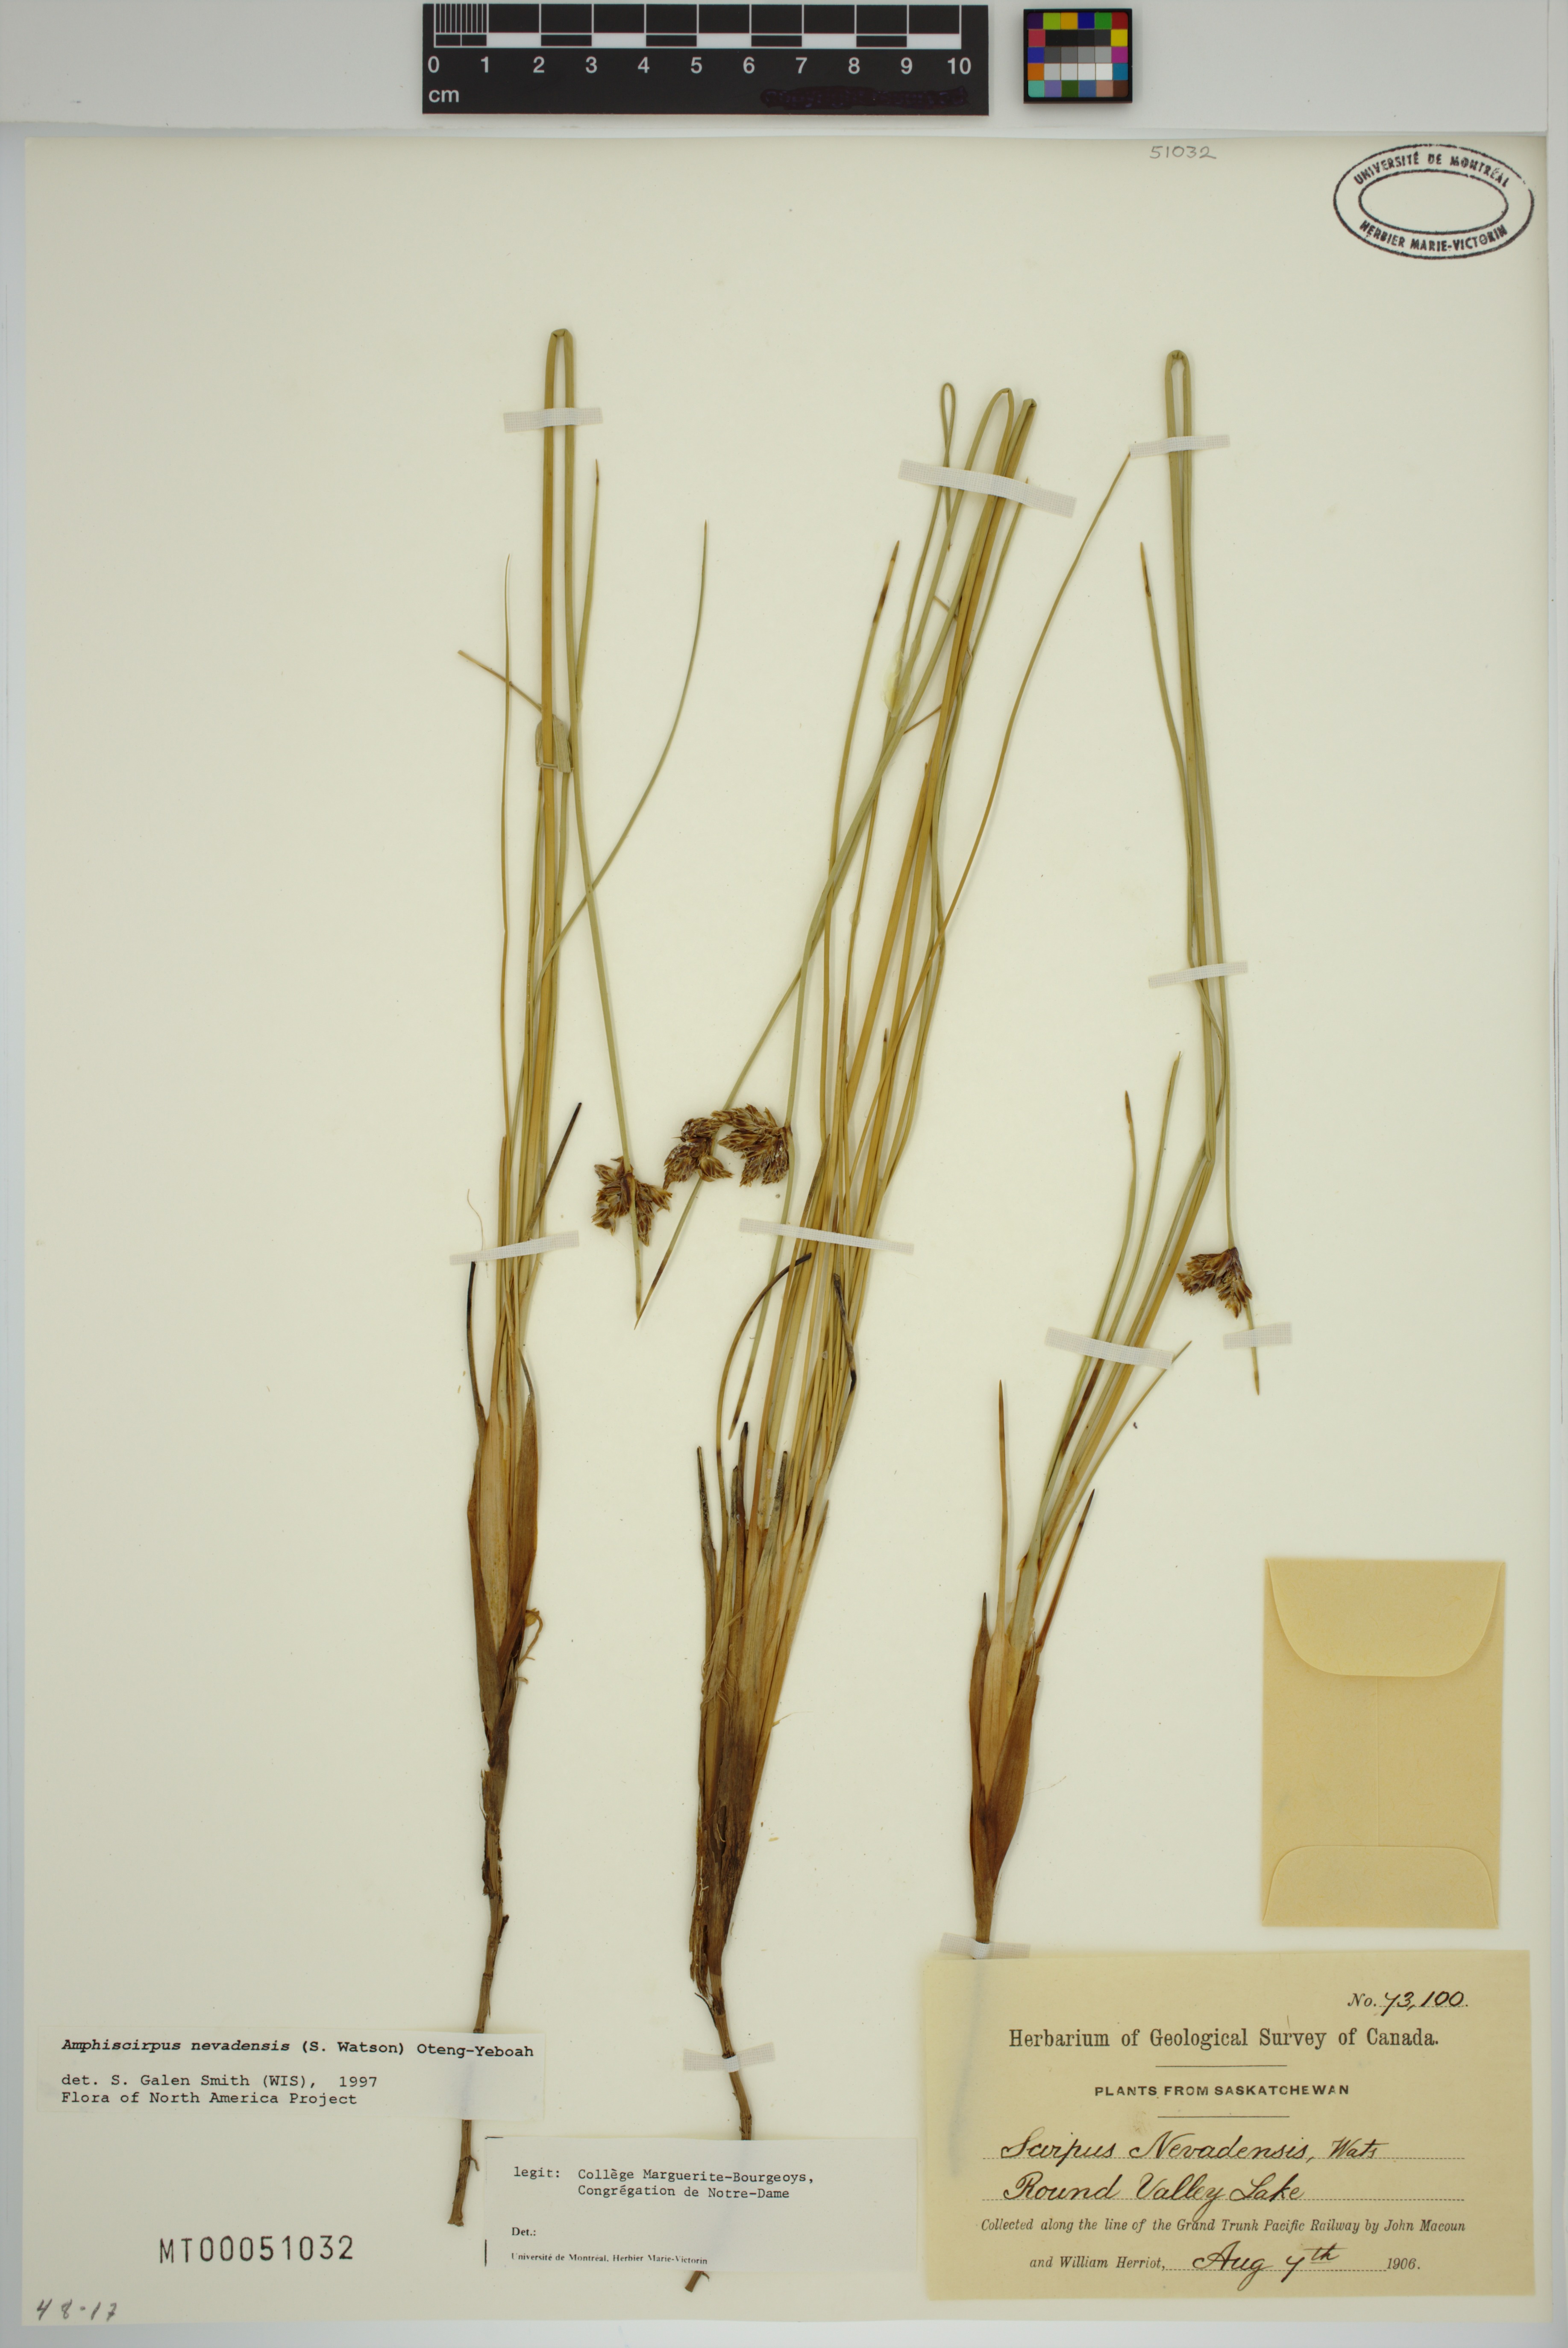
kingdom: Plantae
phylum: Tracheophyta
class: Liliopsida
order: Poales
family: Cyperaceae
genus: Amphiscirpus
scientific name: Amphiscirpus nevadensis
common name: Nevada bulrush
